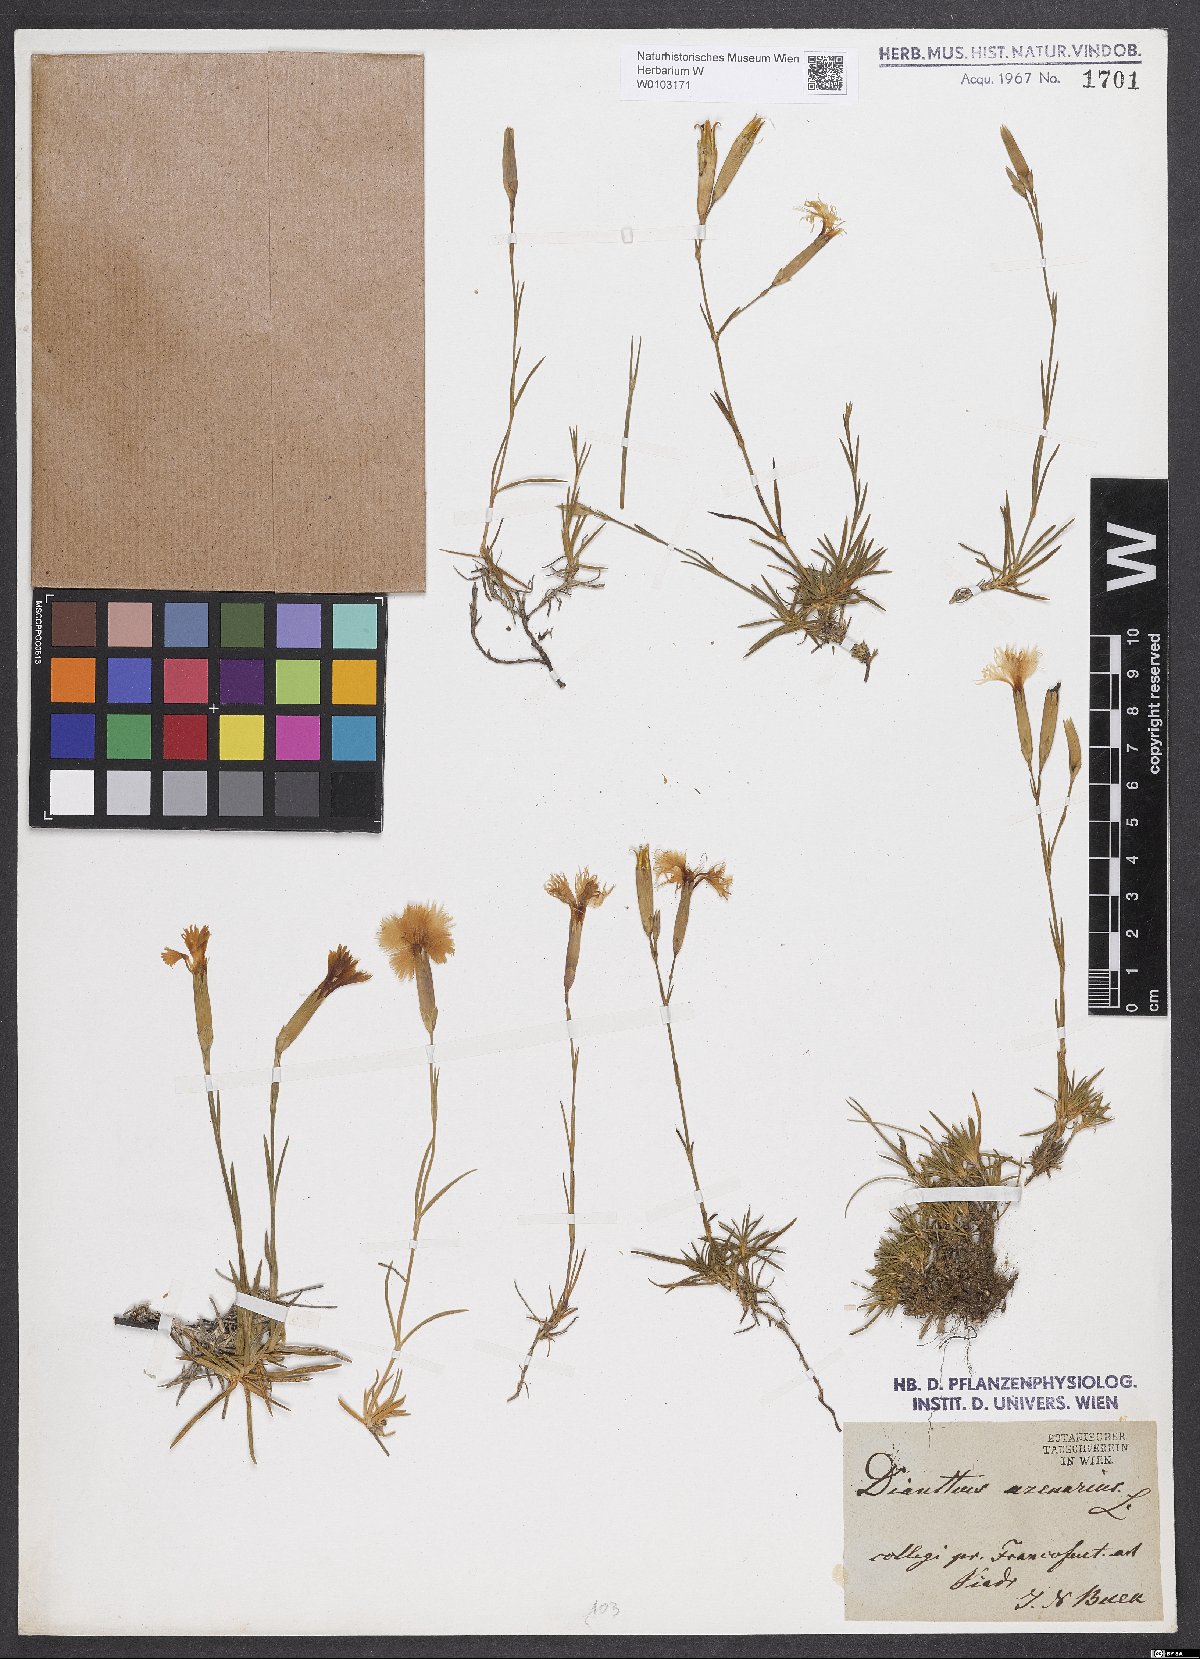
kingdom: Plantae
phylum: Tracheophyta
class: Magnoliopsida
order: Caryophyllales
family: Caryophyllaceae
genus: Dianthus
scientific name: Dianthus arenarius
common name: Stone pink
